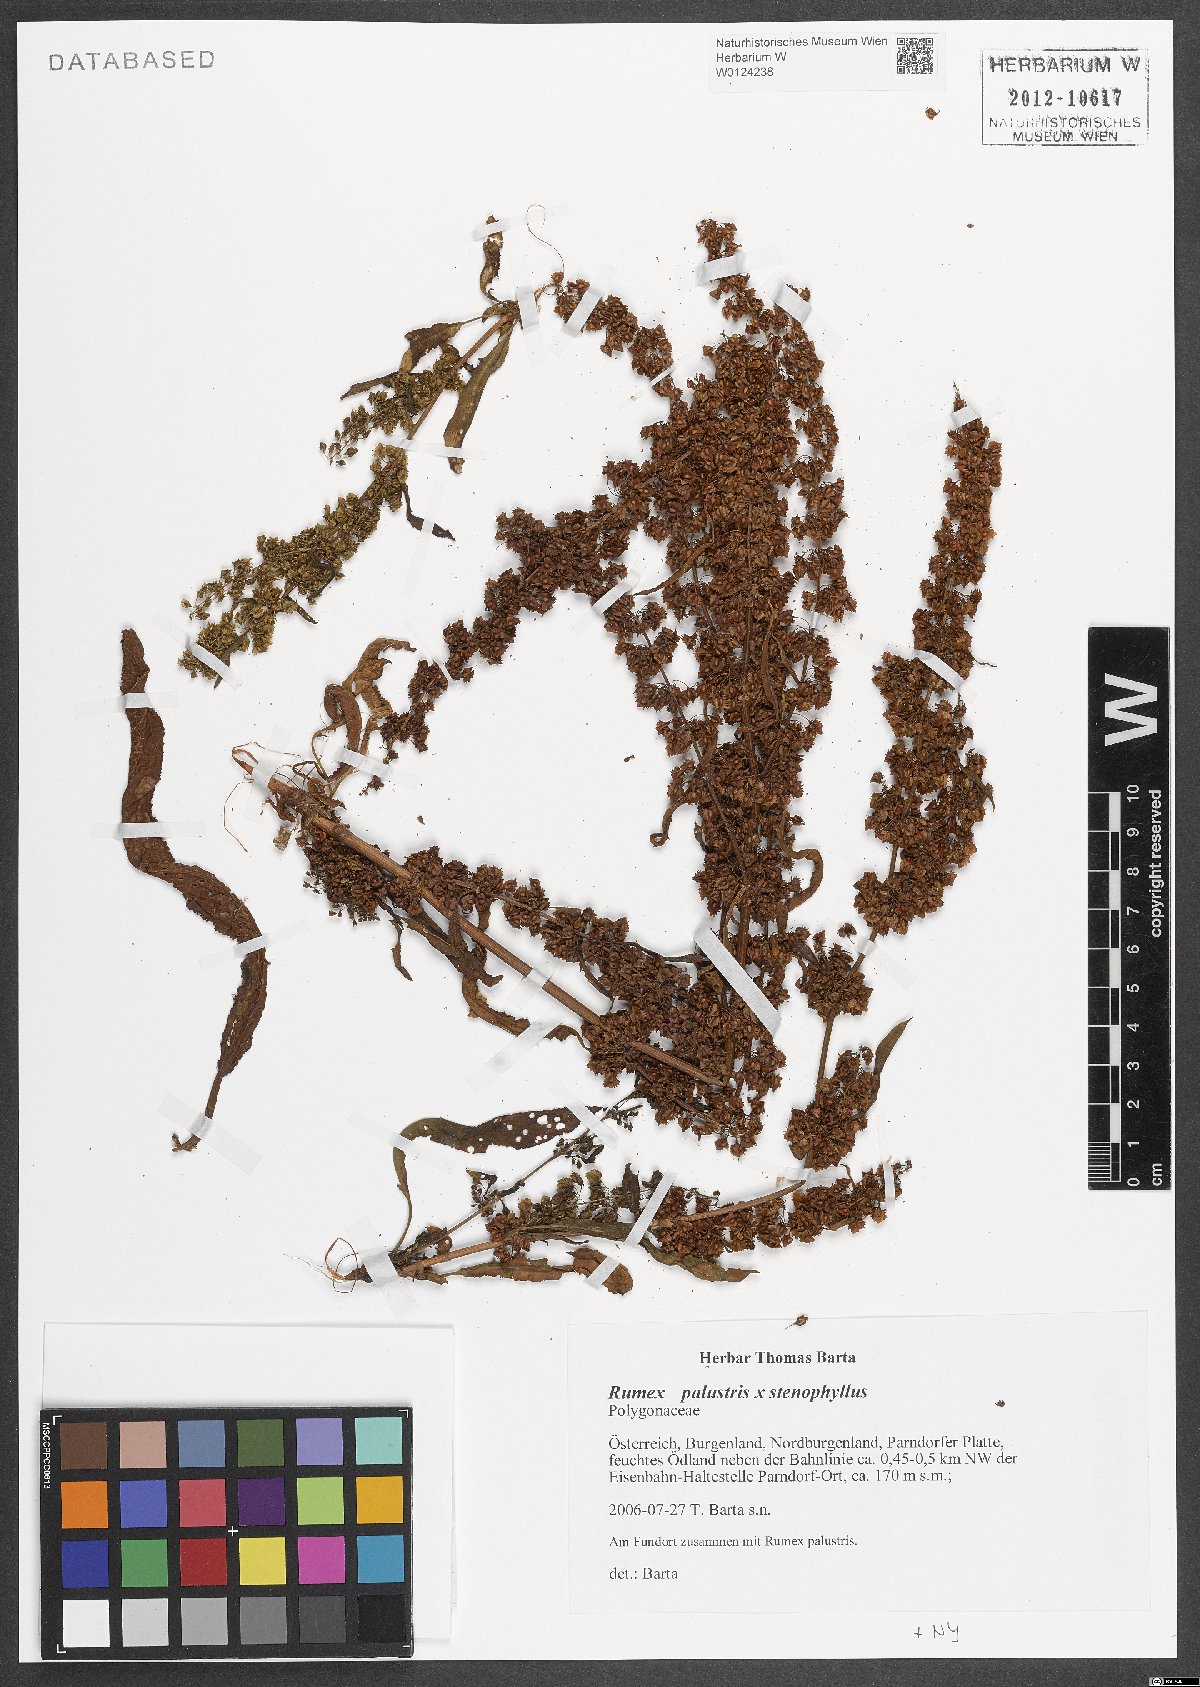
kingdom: Plantae
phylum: Tracheophyta
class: Magnoliopsida
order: Caryophyllales
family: Polygonaceae
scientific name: Polygonaceae
